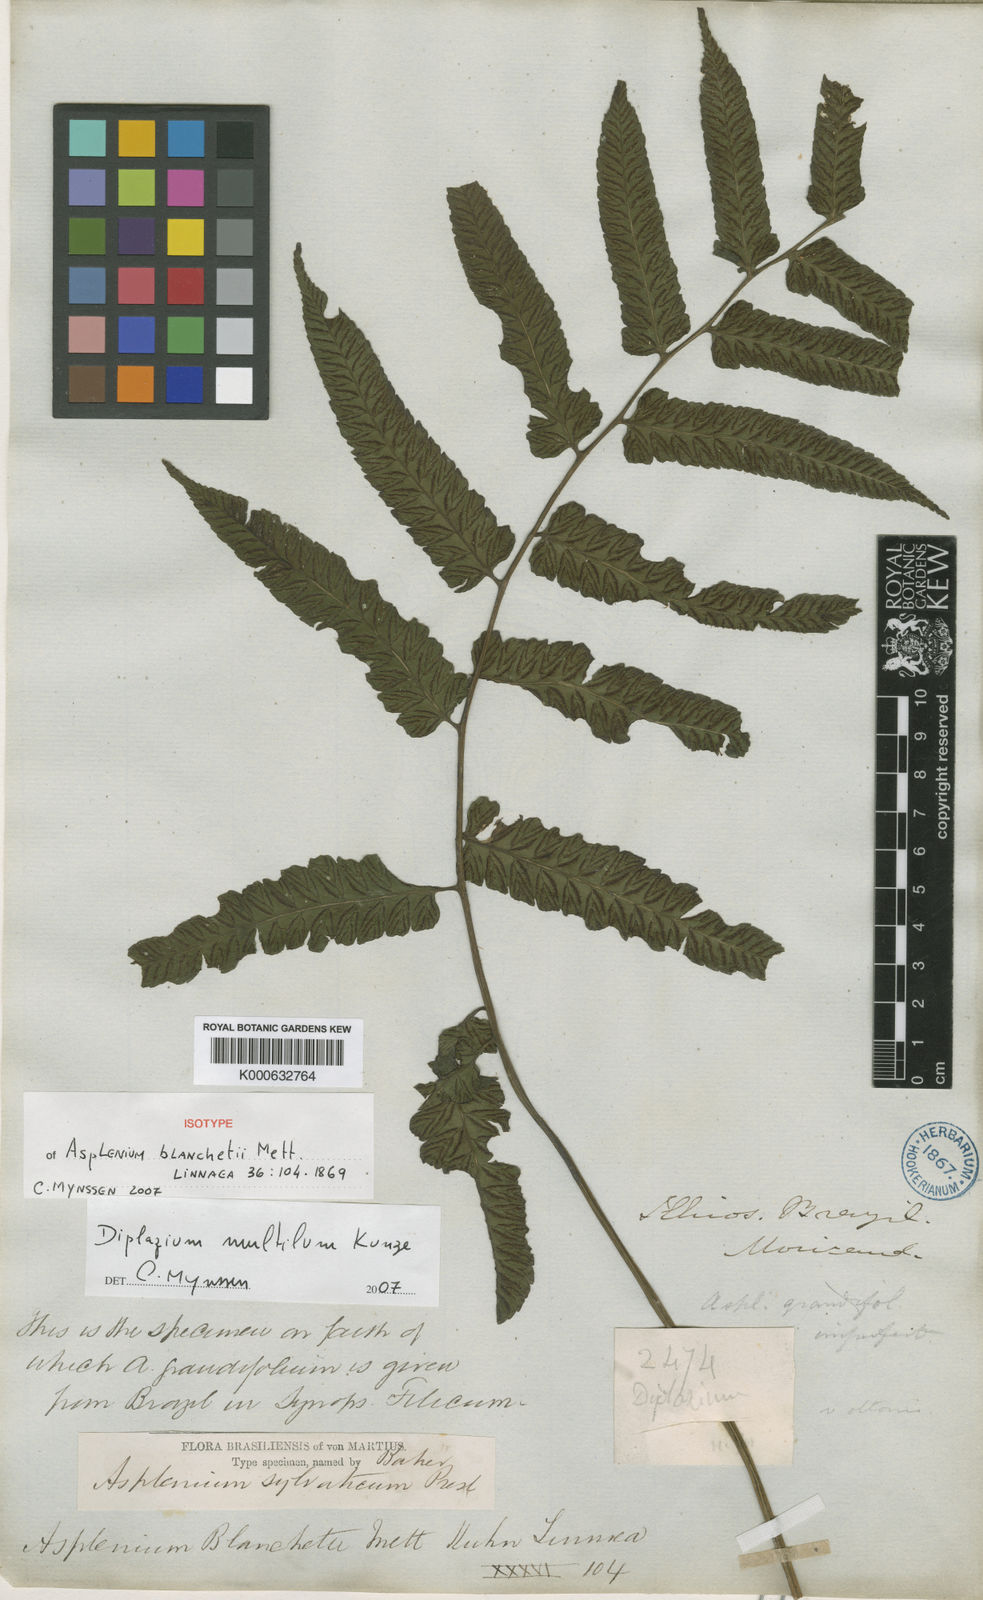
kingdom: Plantae
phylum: Tracheophyta
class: Polypodiopsida
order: Polypodiales
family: Athyriaceae
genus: Diplazium
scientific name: Diplazium mutilum
